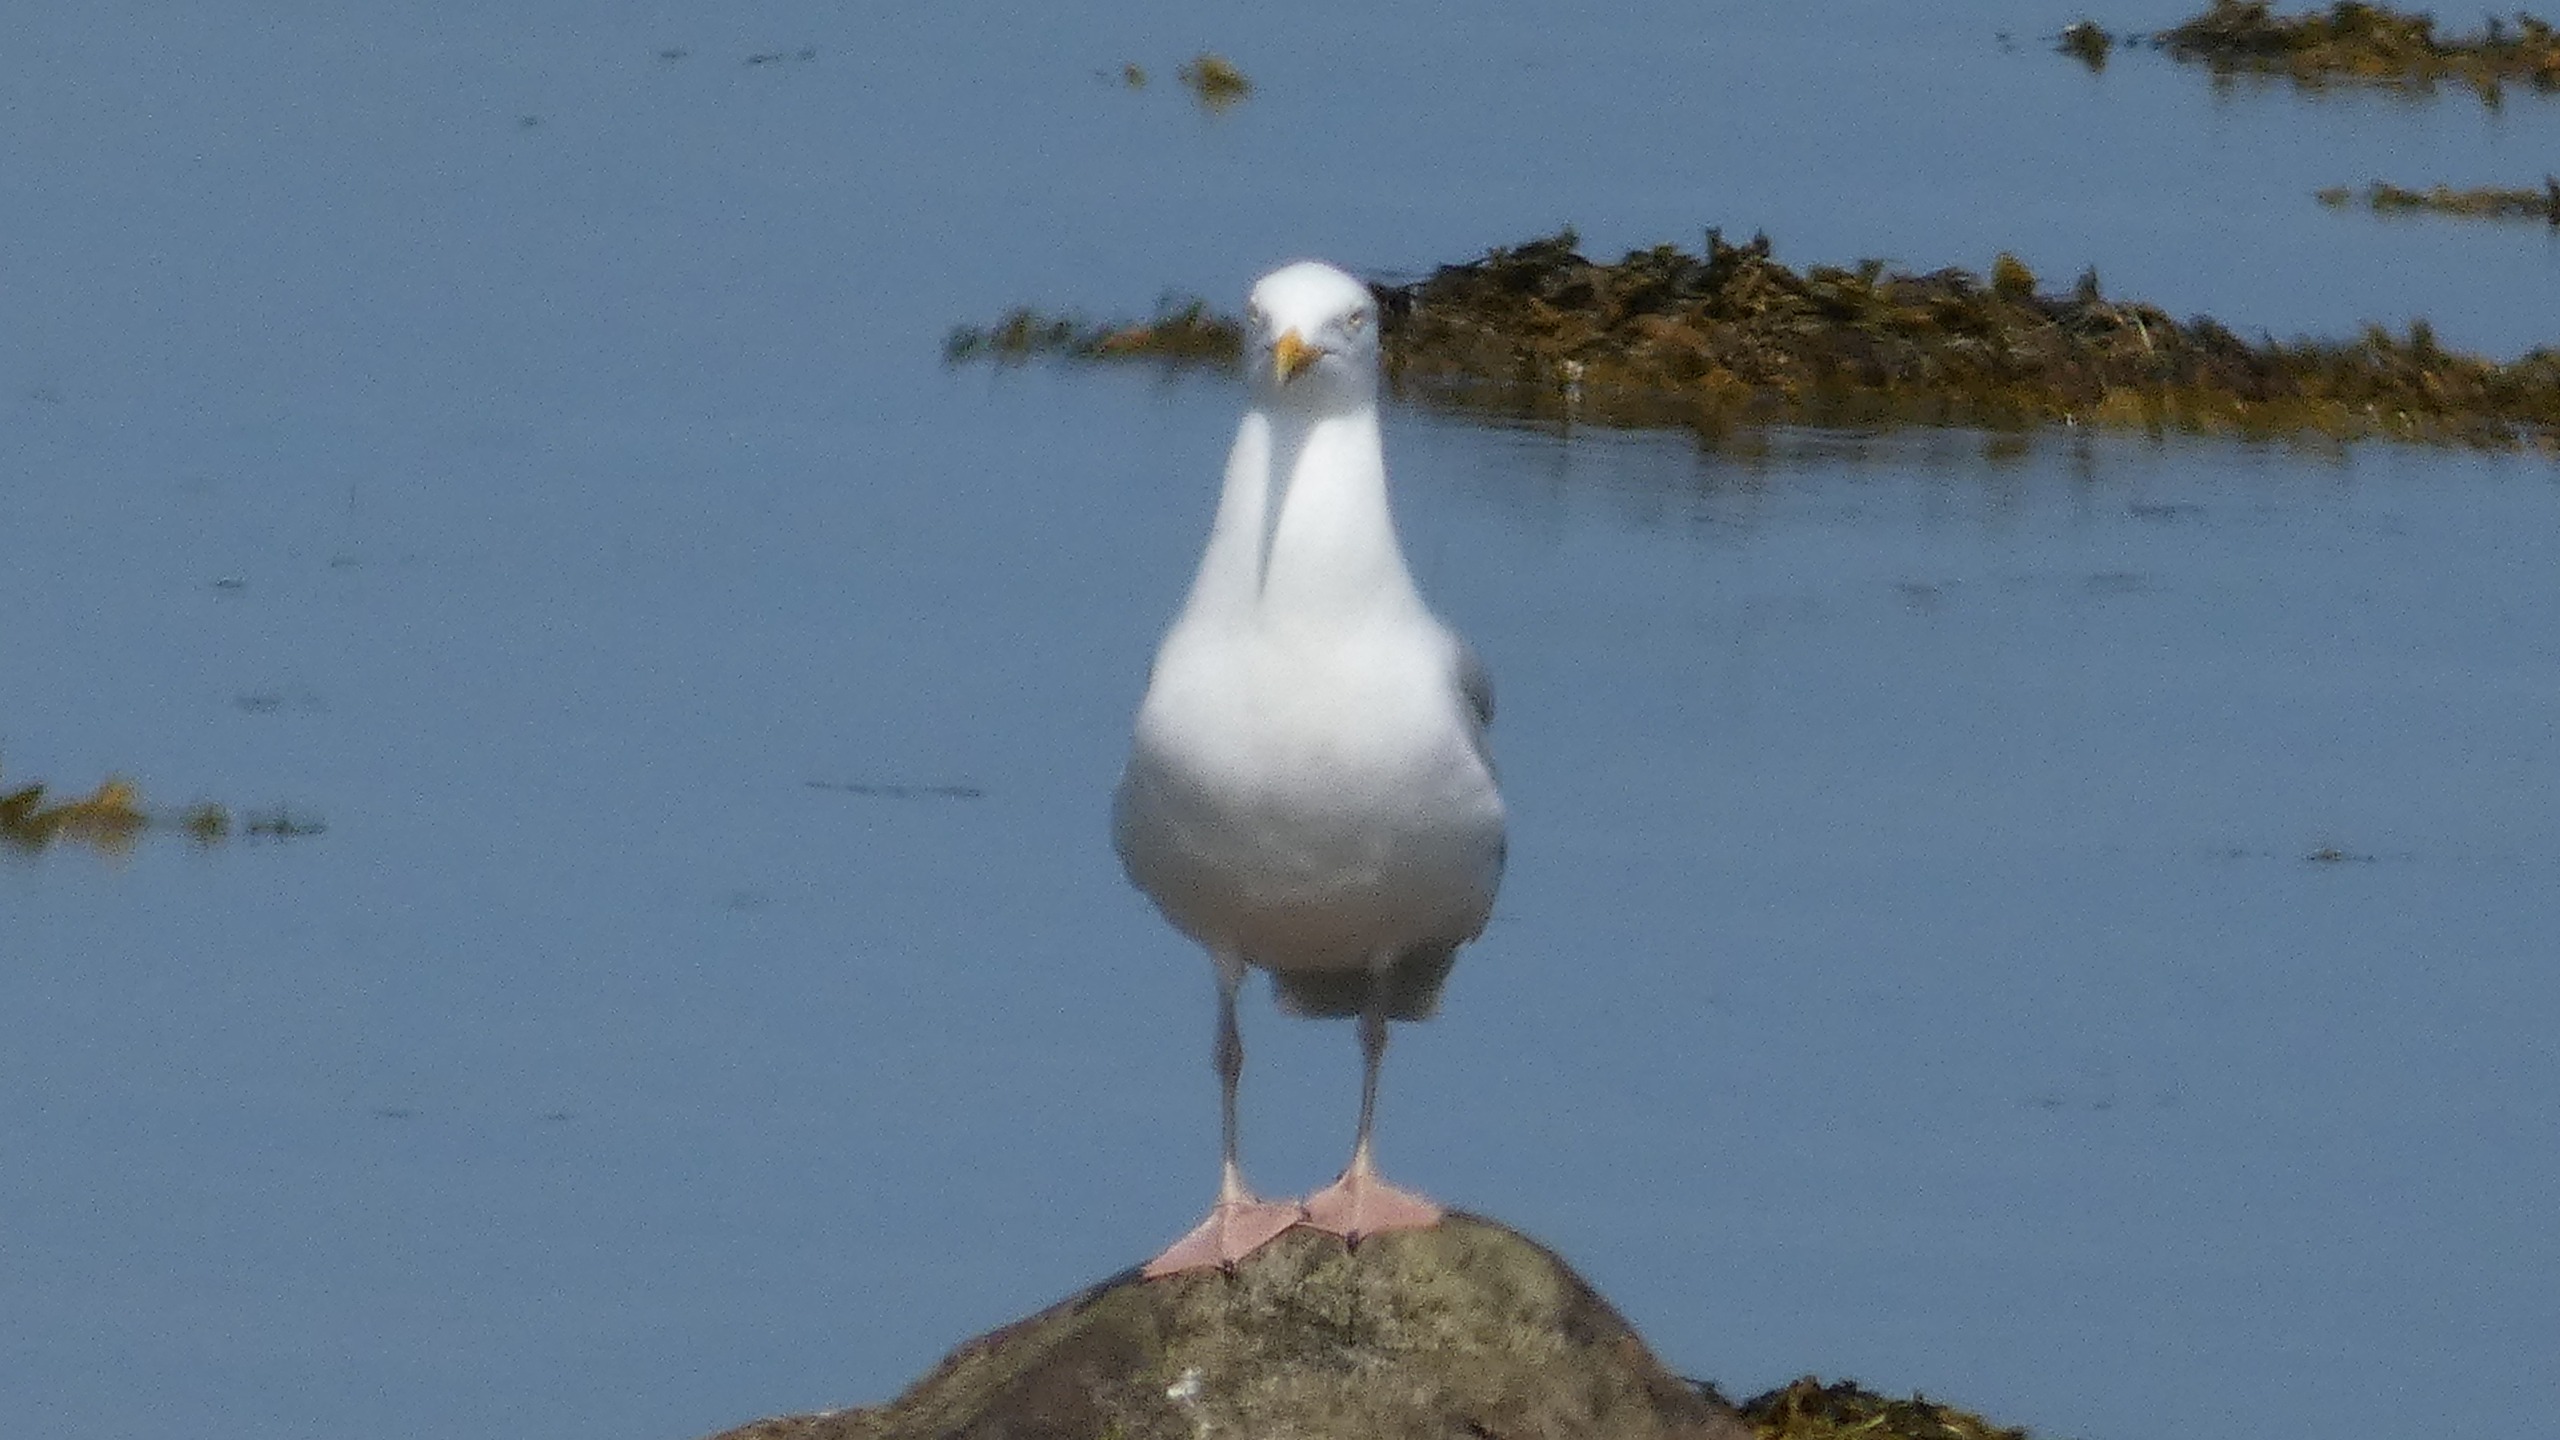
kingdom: Animalia
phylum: Chordata
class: Aves
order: Charadriiformes
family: Laridae
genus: Larus
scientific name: Larus argentatus
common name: Sølvmåge
